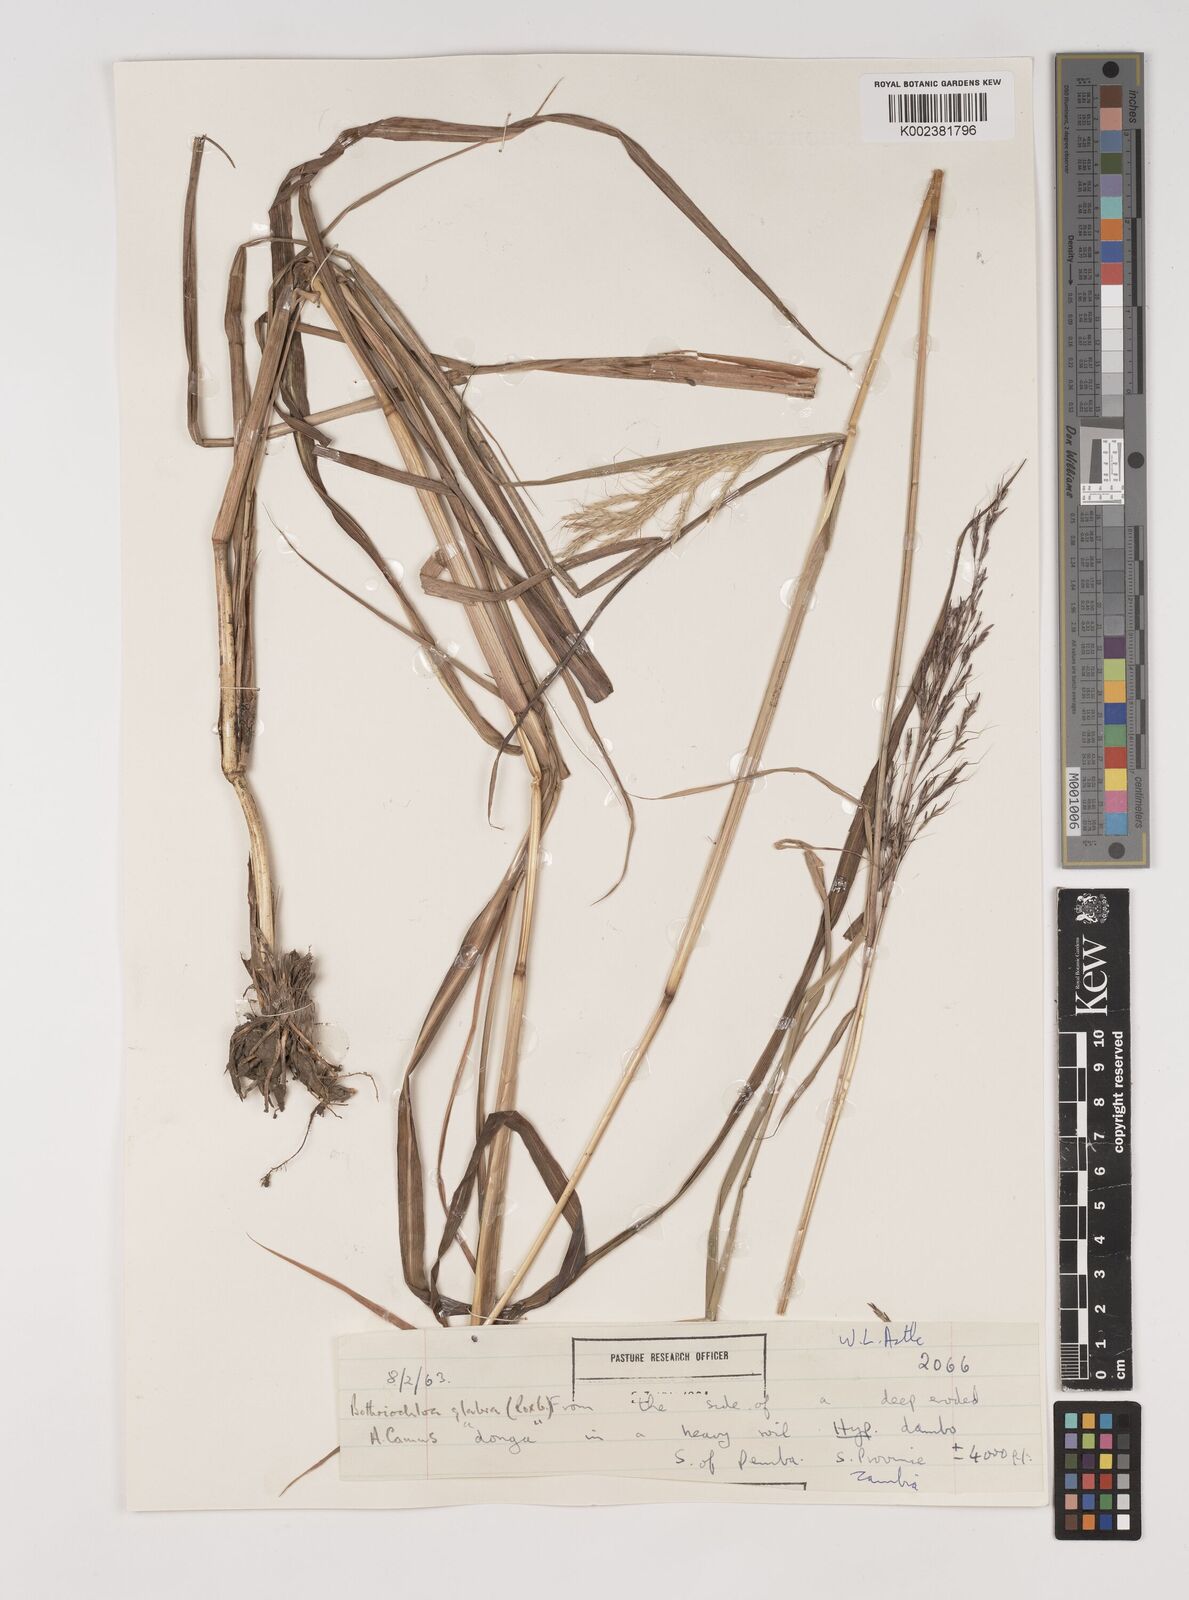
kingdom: Plantae
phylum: Tracheophyta
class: Liliopsida
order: Poales
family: Poaceae
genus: Bothriochloa
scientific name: Bothriochloa bladhii
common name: Caucasian bluestem
